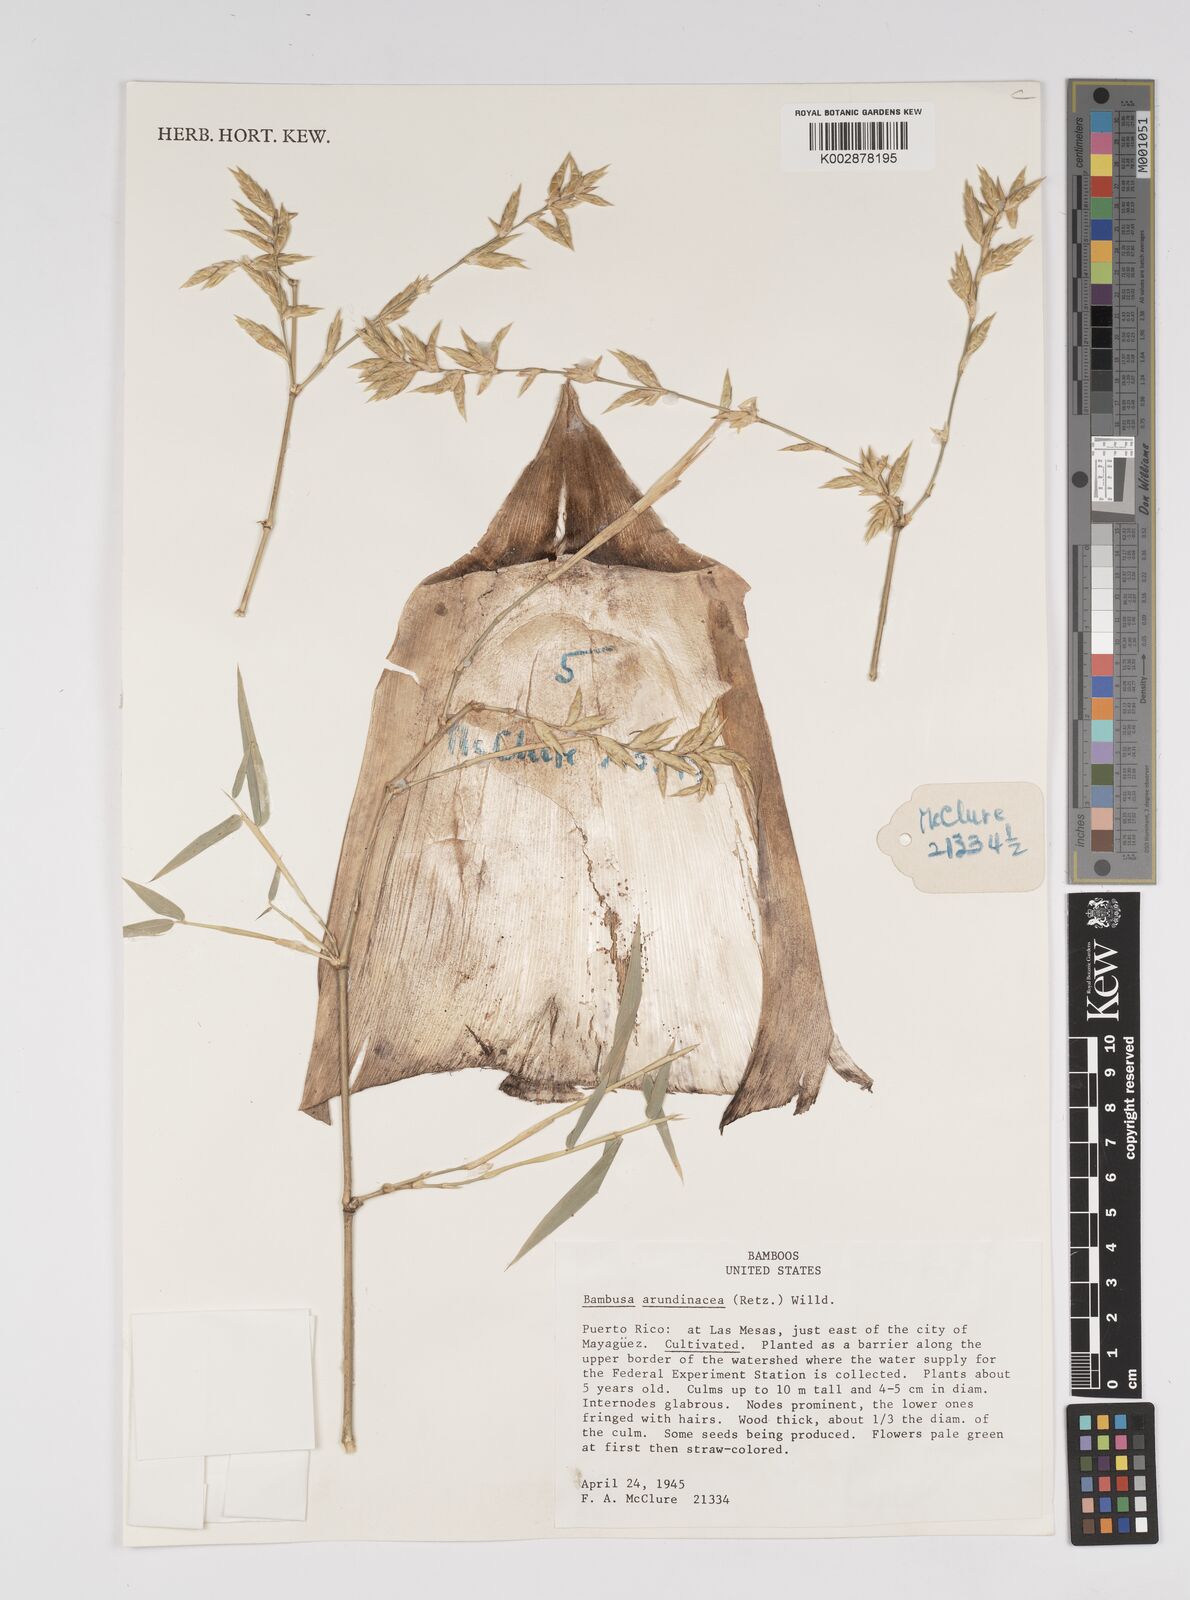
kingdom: Plantae
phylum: Tracheophyta
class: Liliopsida
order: Poales
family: Poaceae
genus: Bambusa
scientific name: Bambusa bambos
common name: Indian thorny bamboo
